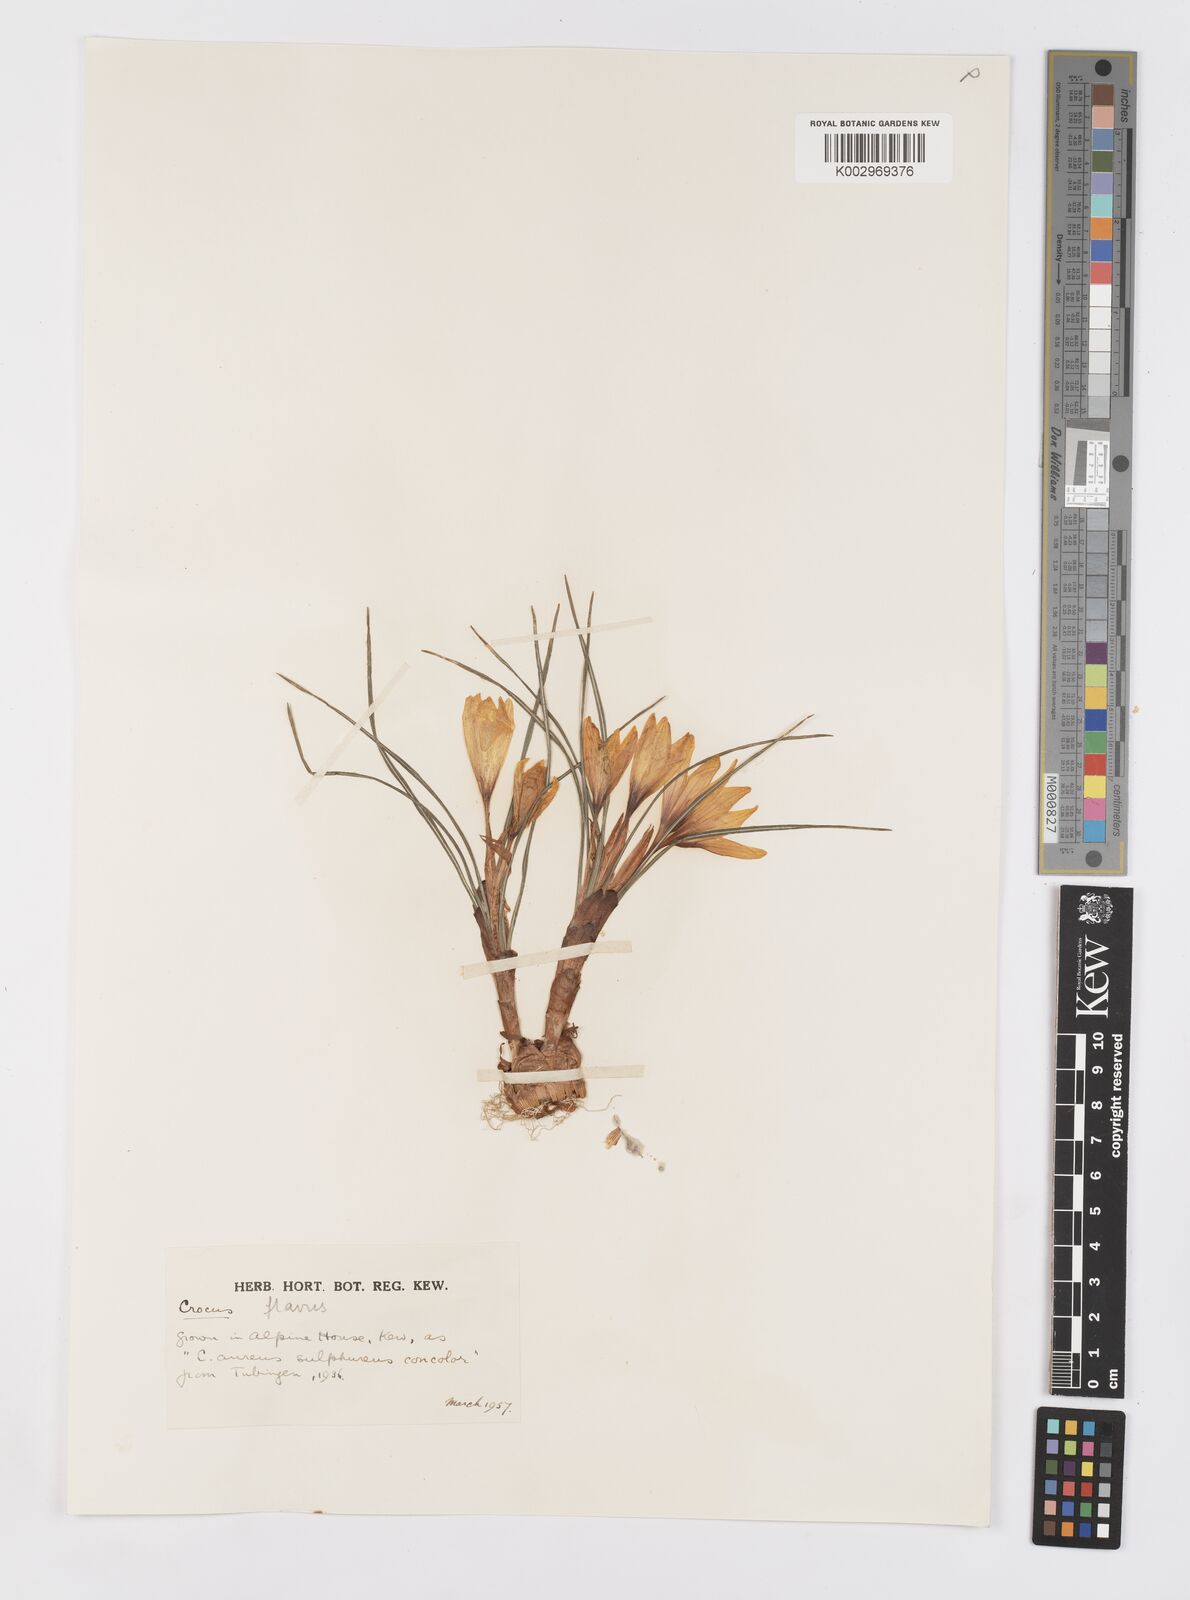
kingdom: Plantae
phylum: Tracheophyta
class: Liliopsida
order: Asparagales
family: Iridaceae
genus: Crocus
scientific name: Crocus flavus
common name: Yellow crocus
